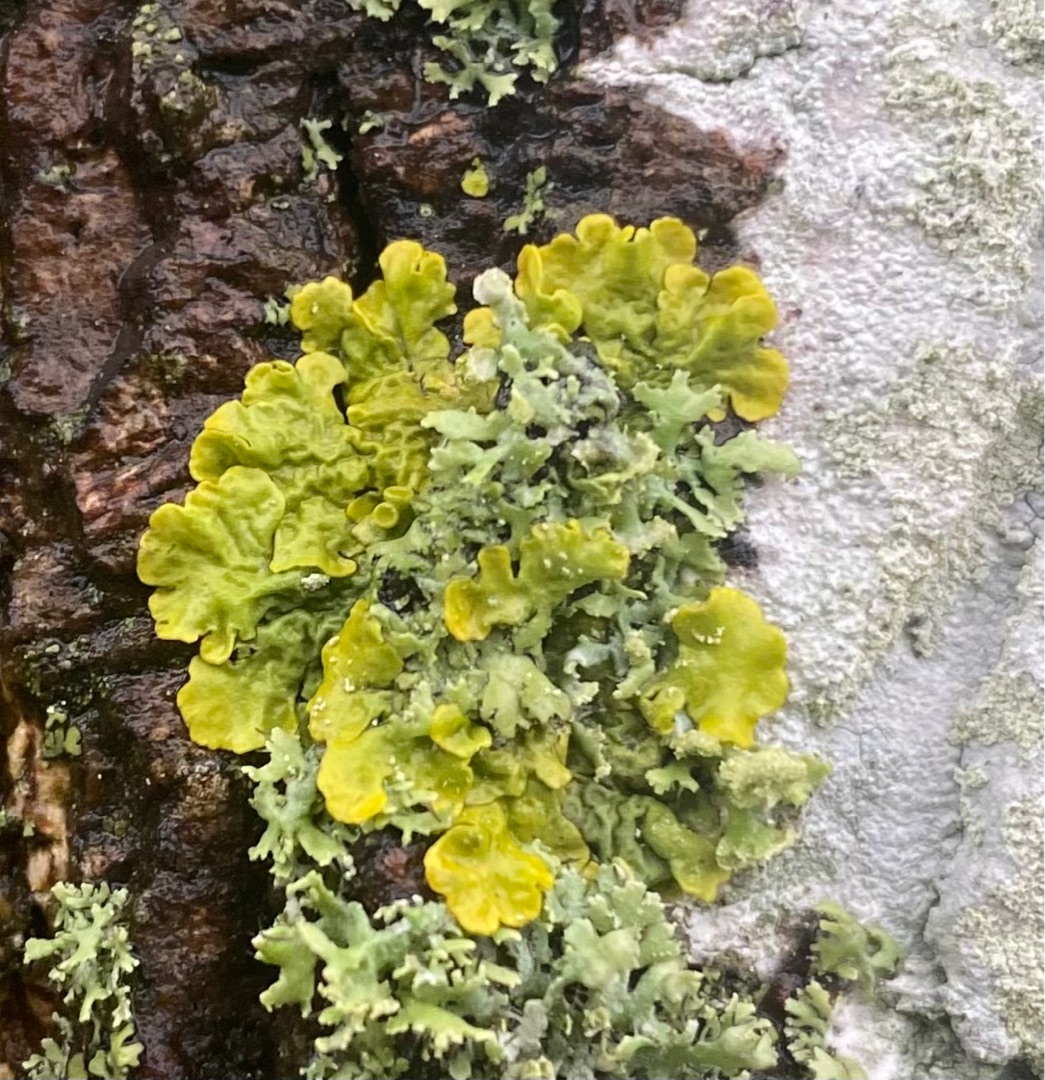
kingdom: Fungi
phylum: Ascomycota
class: Lecanoromycetes
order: Teloschistales
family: Teloschistaceae
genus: Xanthoria
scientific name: Xanthoria parietina
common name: Almindelig væggelav
